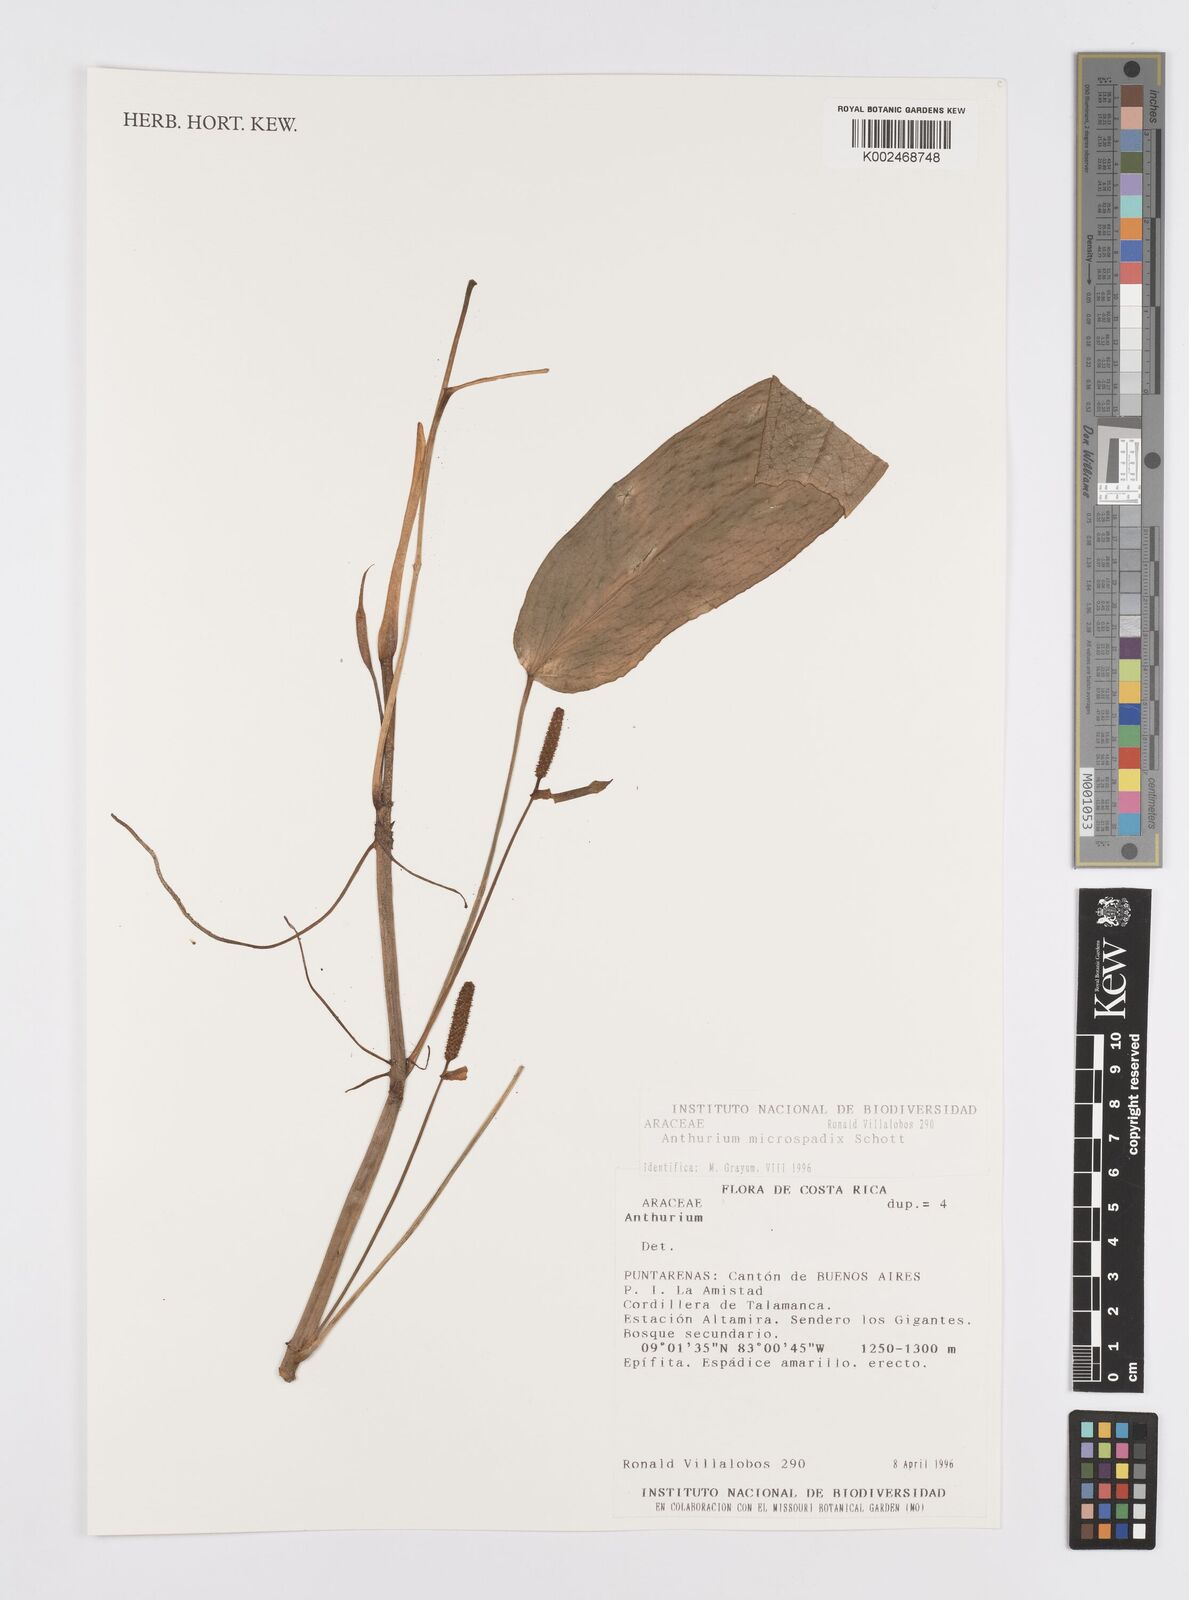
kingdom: Plantae
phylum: Tracheophyta
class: Liliopsida
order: Alismatales
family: Araceae
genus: Anthurium
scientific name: Anthurium microspadix
